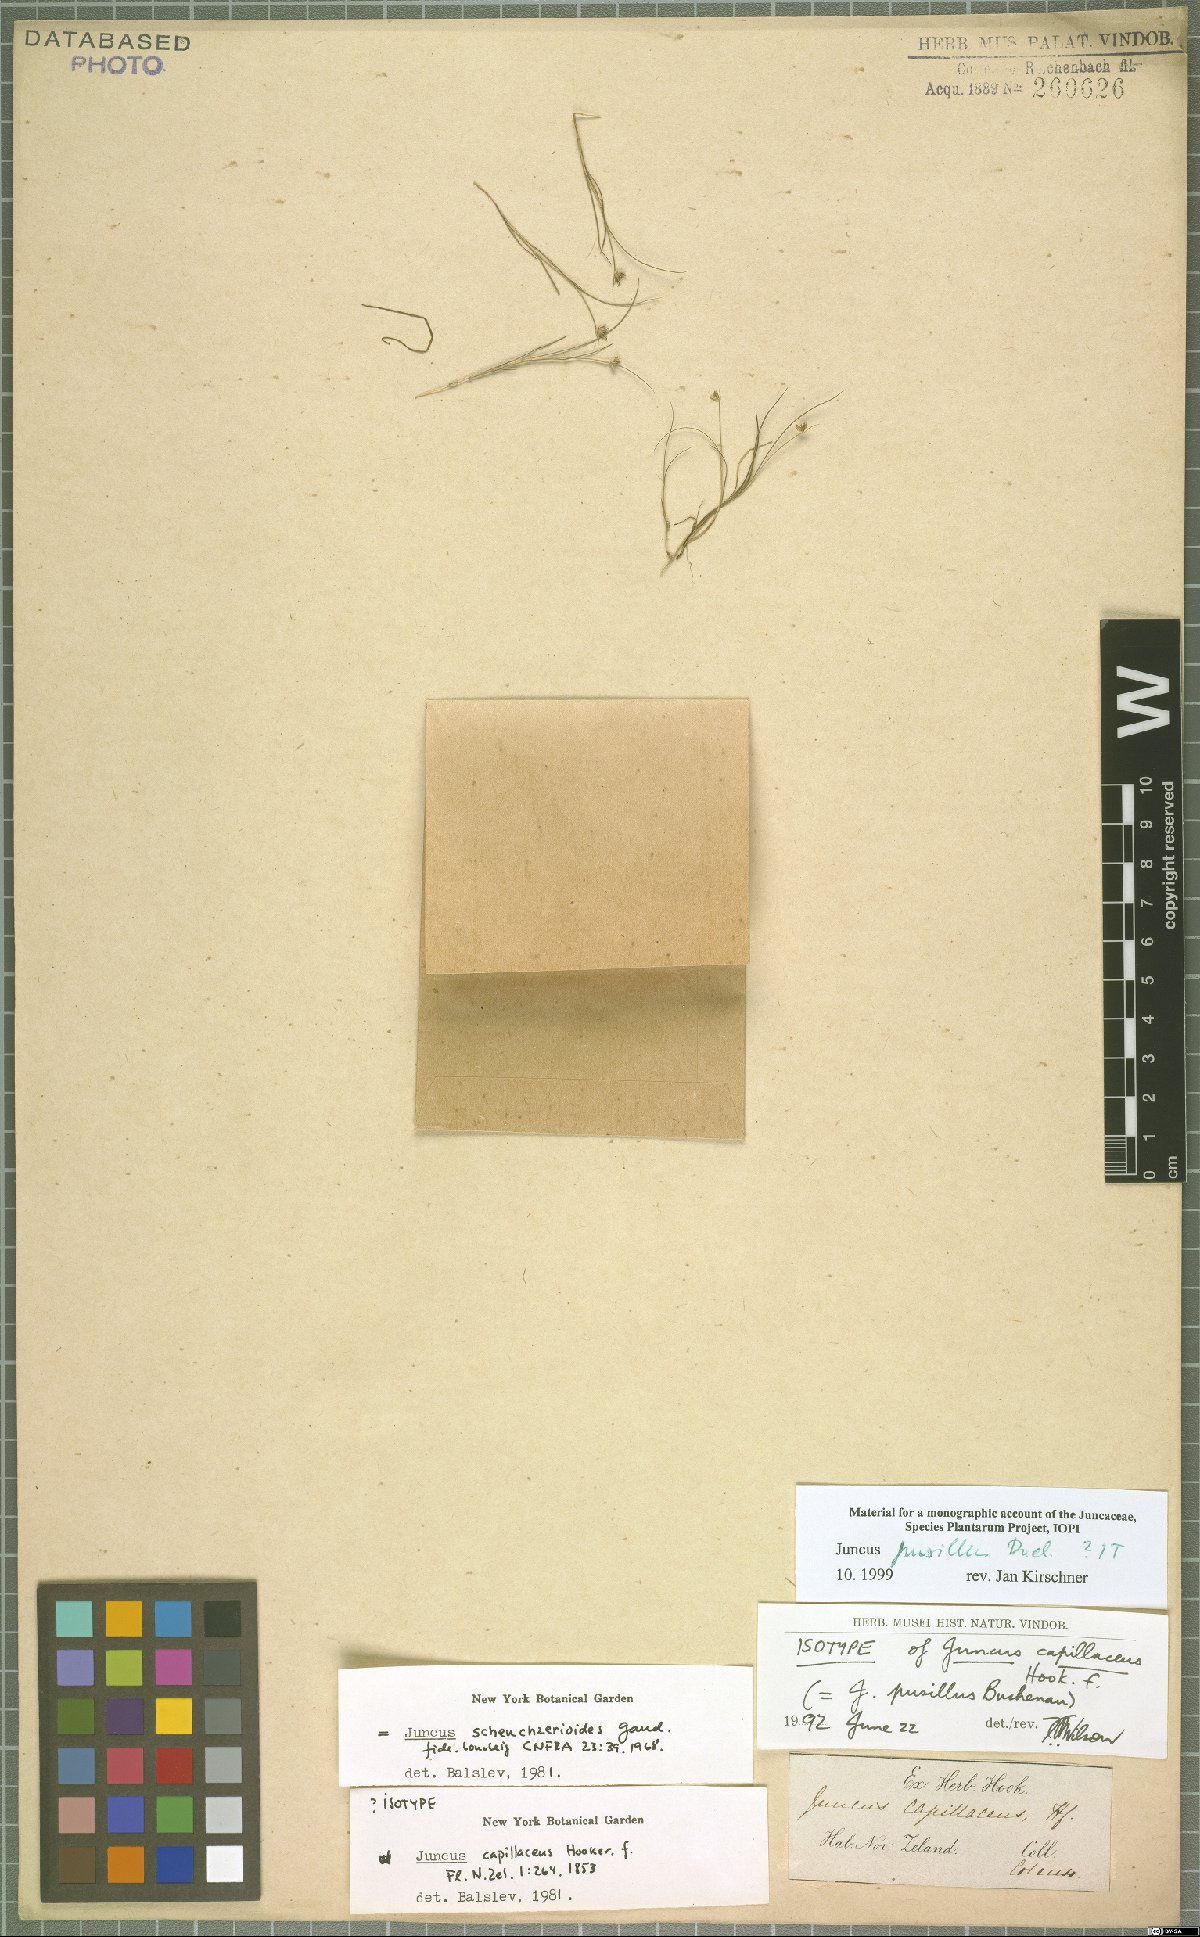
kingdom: Plantae
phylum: Tracheophyta
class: Liliopsida
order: Poales
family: Juncaceae
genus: Juncus
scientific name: Juncus pusillus
